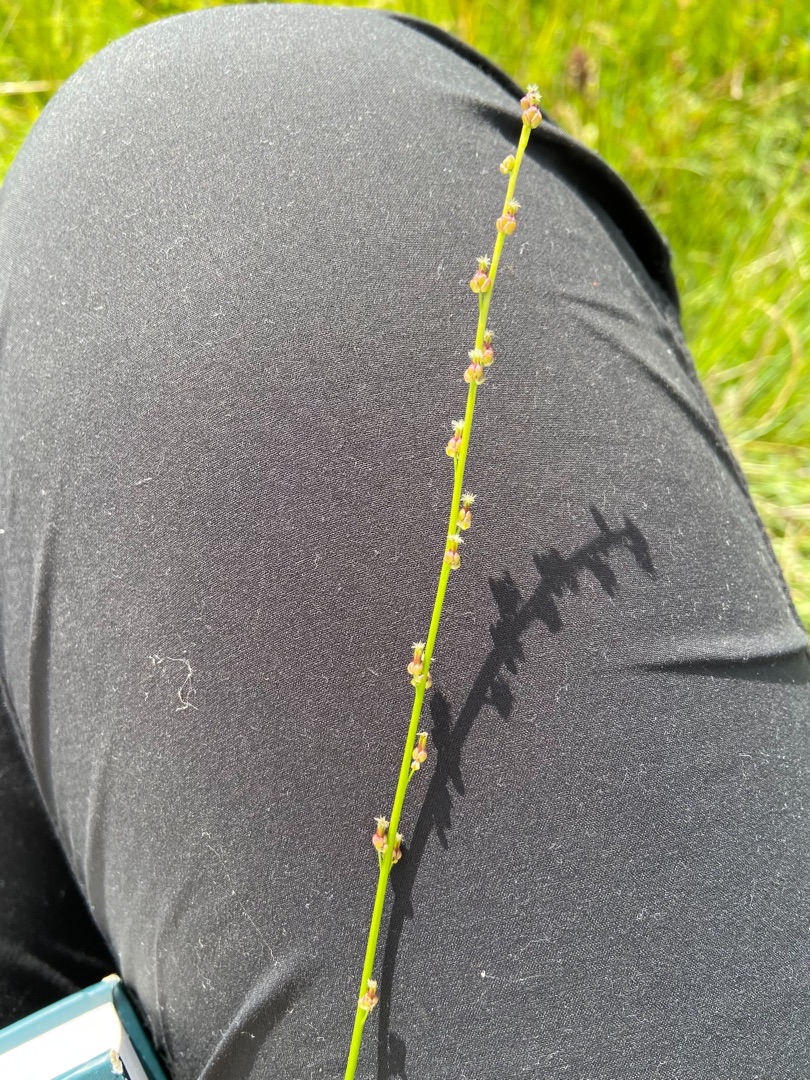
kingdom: Plantae
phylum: Tracheophyta
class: Liliopsida
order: Alismatales
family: Juncaginaceae
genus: Triglochin
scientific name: Triglochin palustris
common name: Kær-trehage
